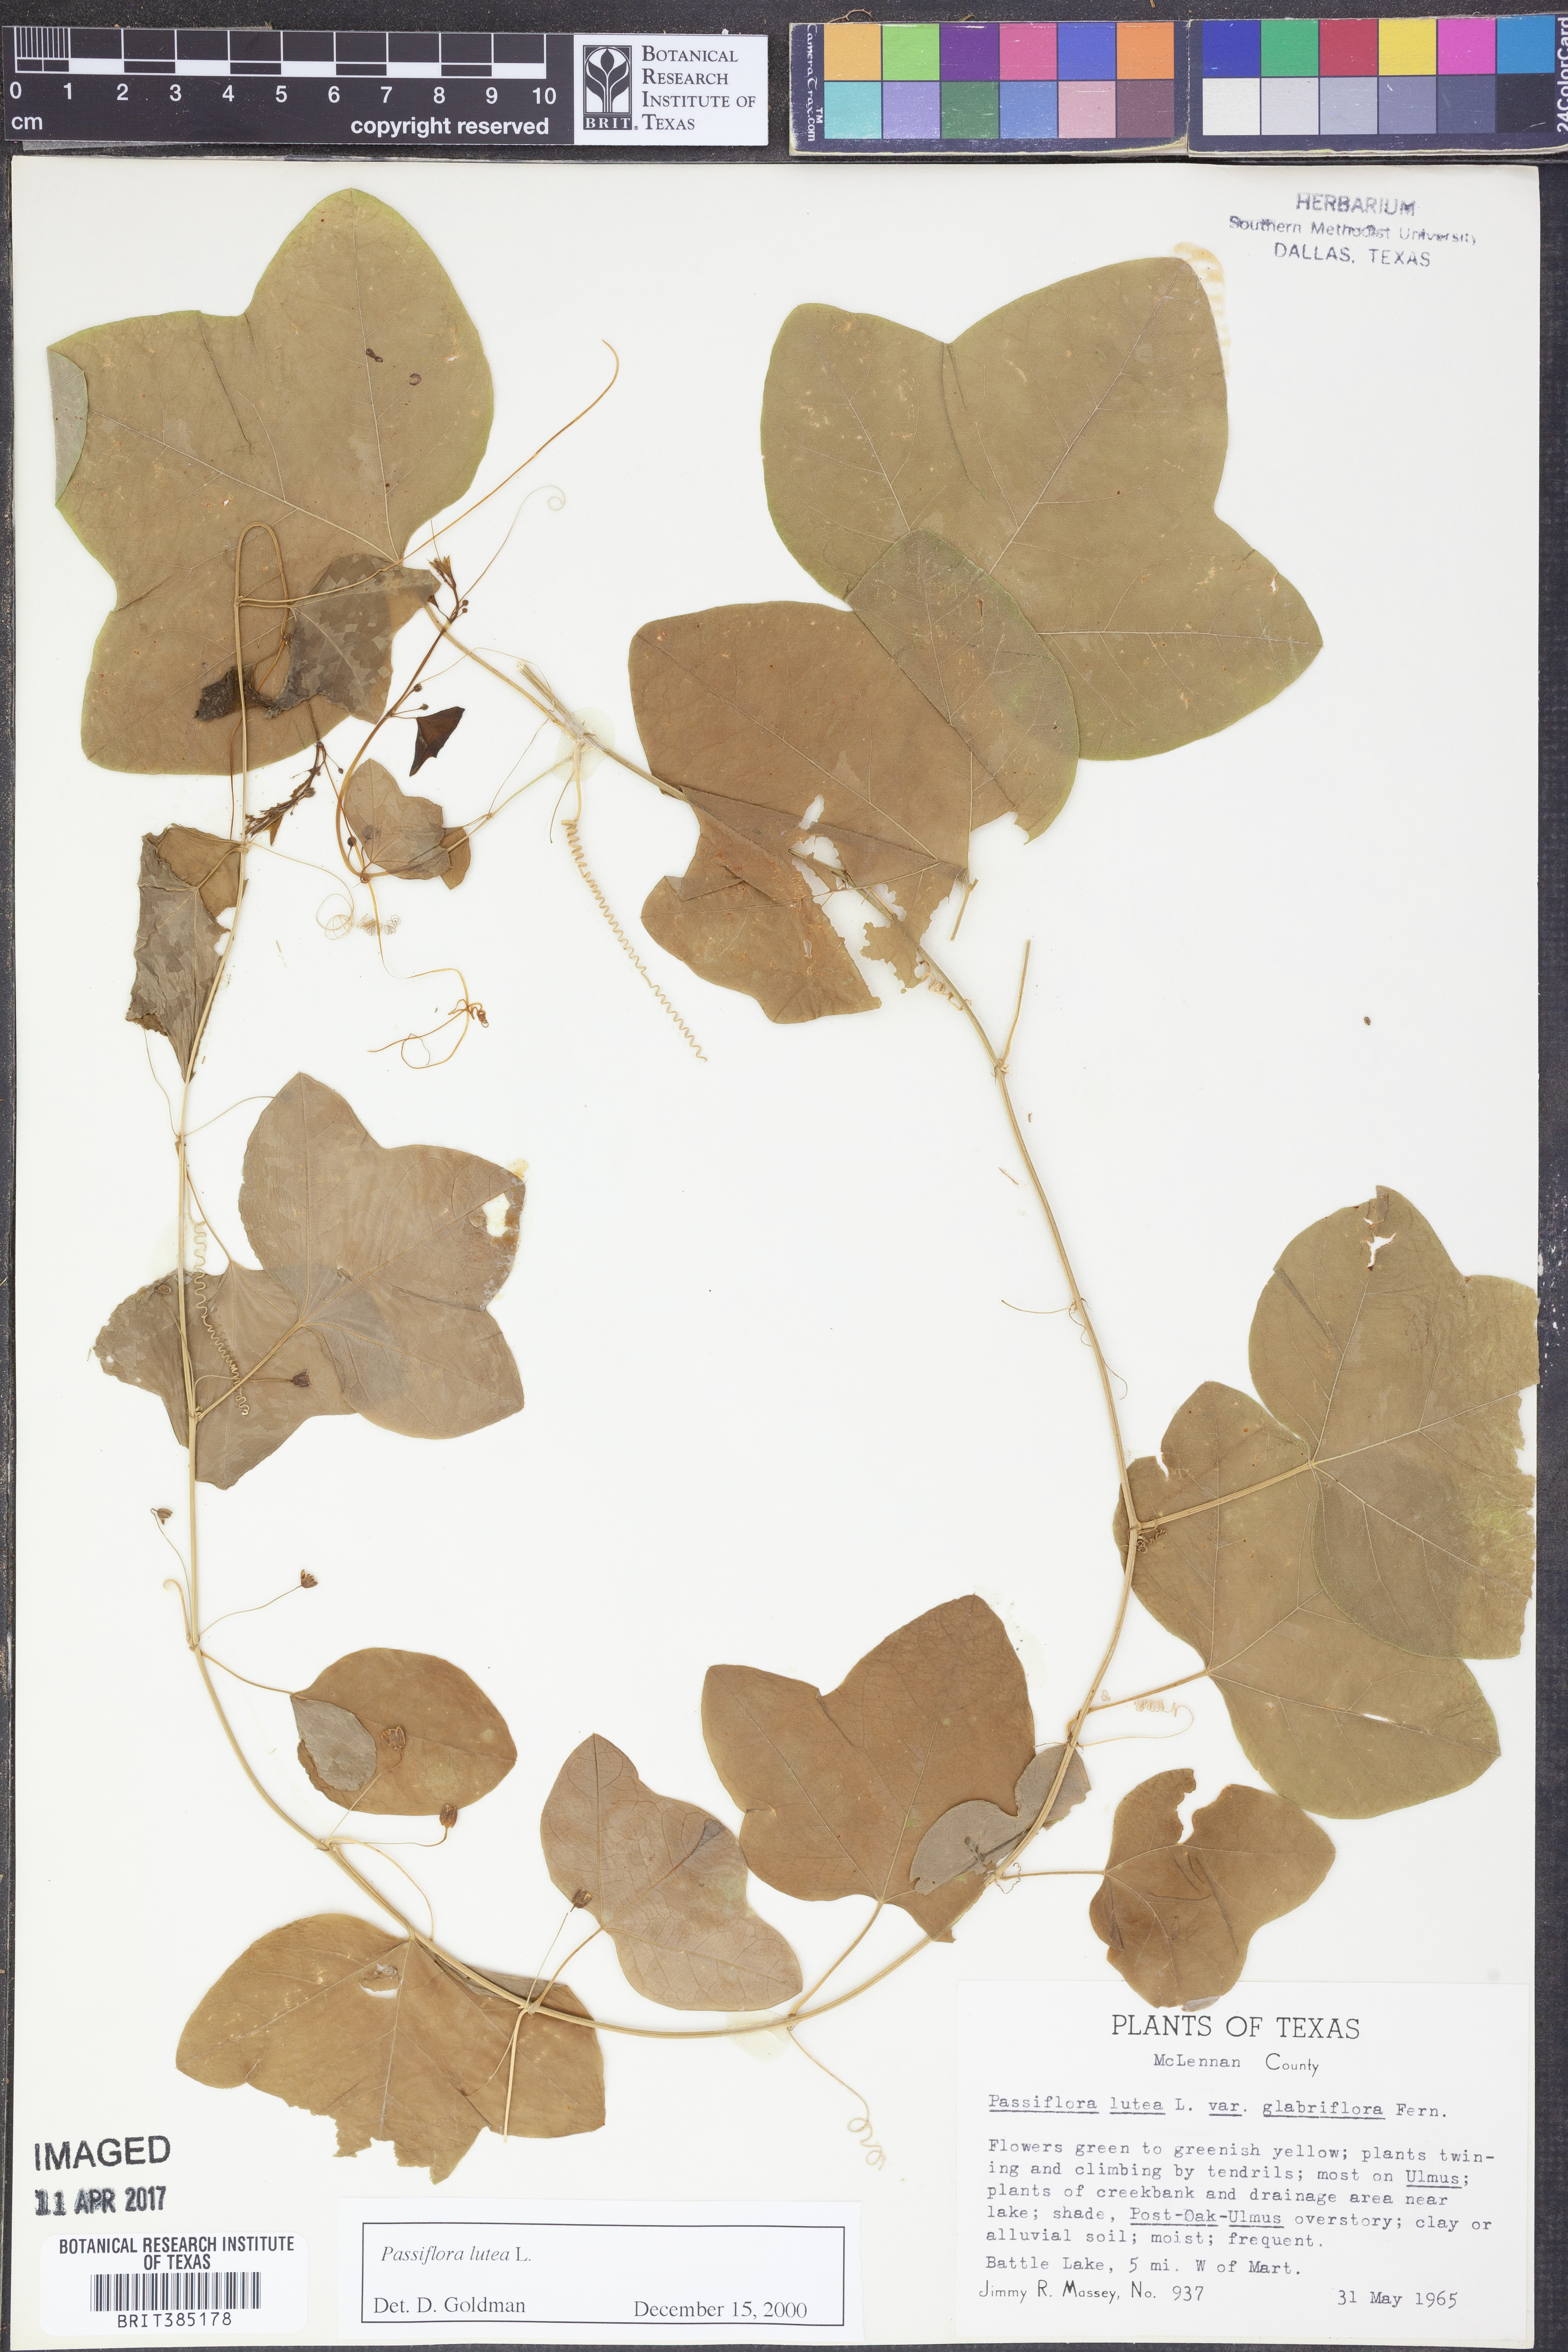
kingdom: Plantae
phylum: Tracheophyta
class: Magnoliopsida
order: Malpighiales
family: Passifloraceae
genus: Passiflora
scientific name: Passiflora lutea
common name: Yellow passionflower
